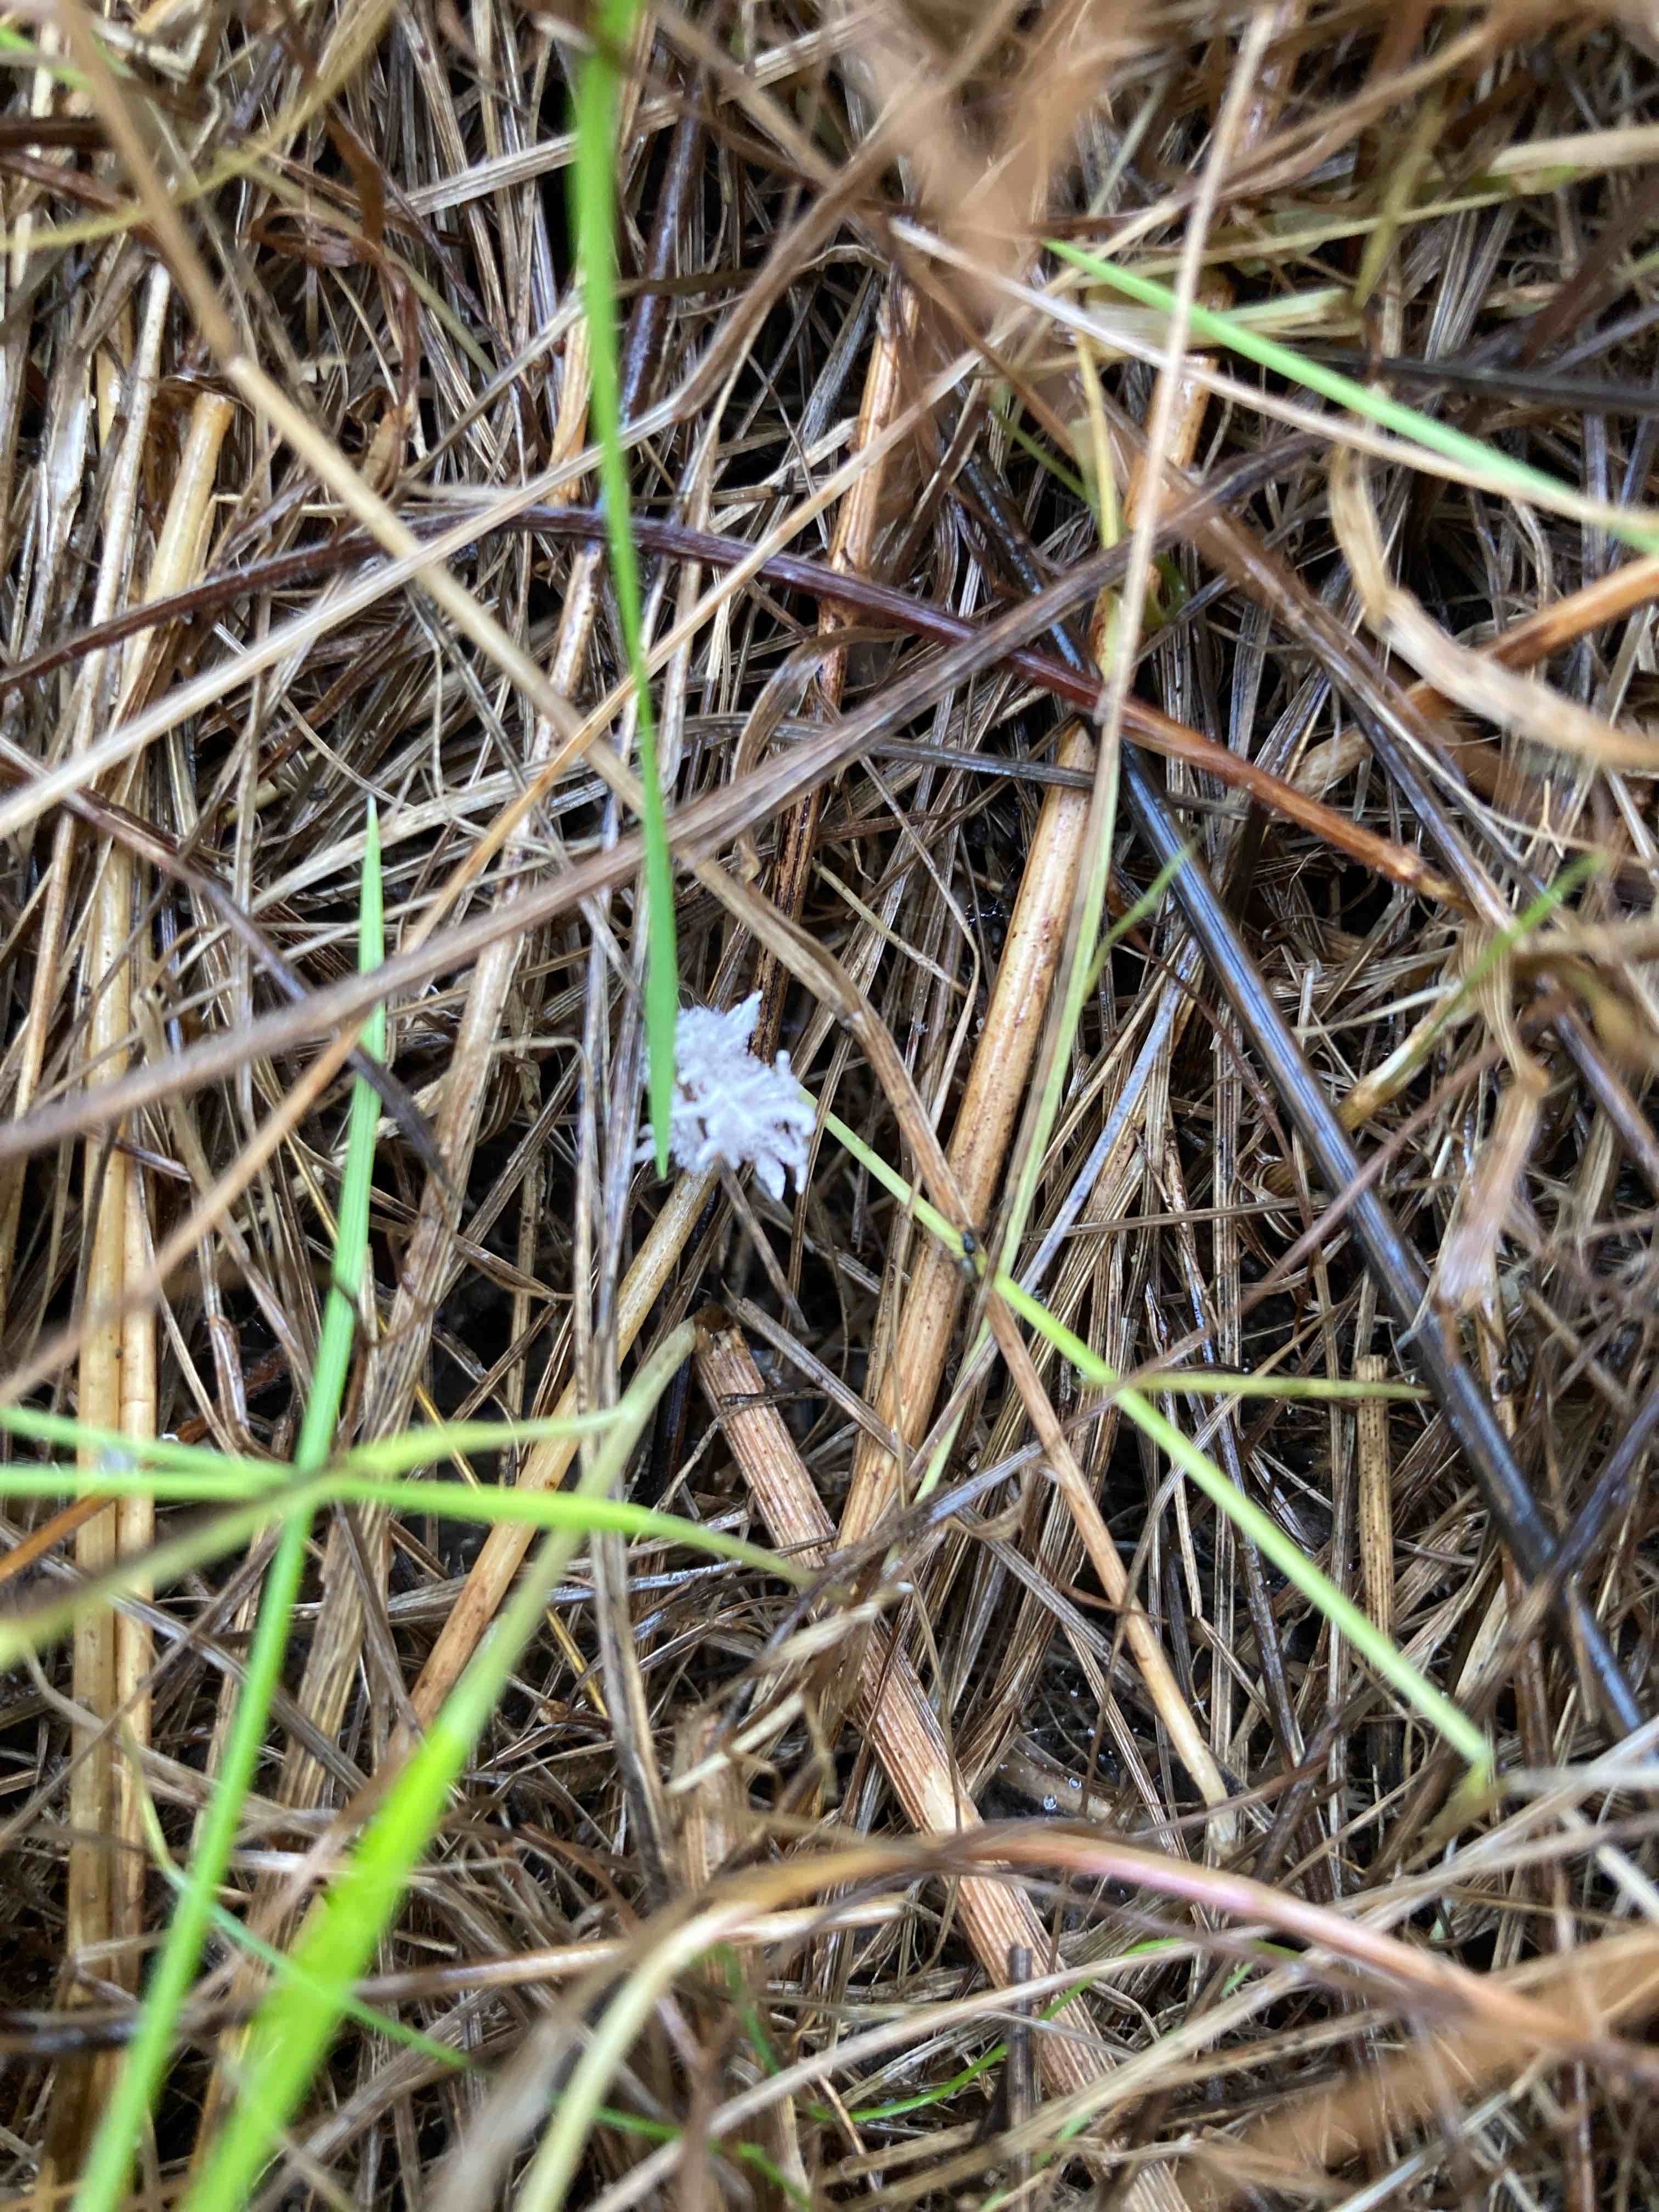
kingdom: Fungi
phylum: Ascomycota
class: Sordariomycetes
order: Hypocreales
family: Cordycipitaceae
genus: Gibellula
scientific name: Gibellula pulchra
